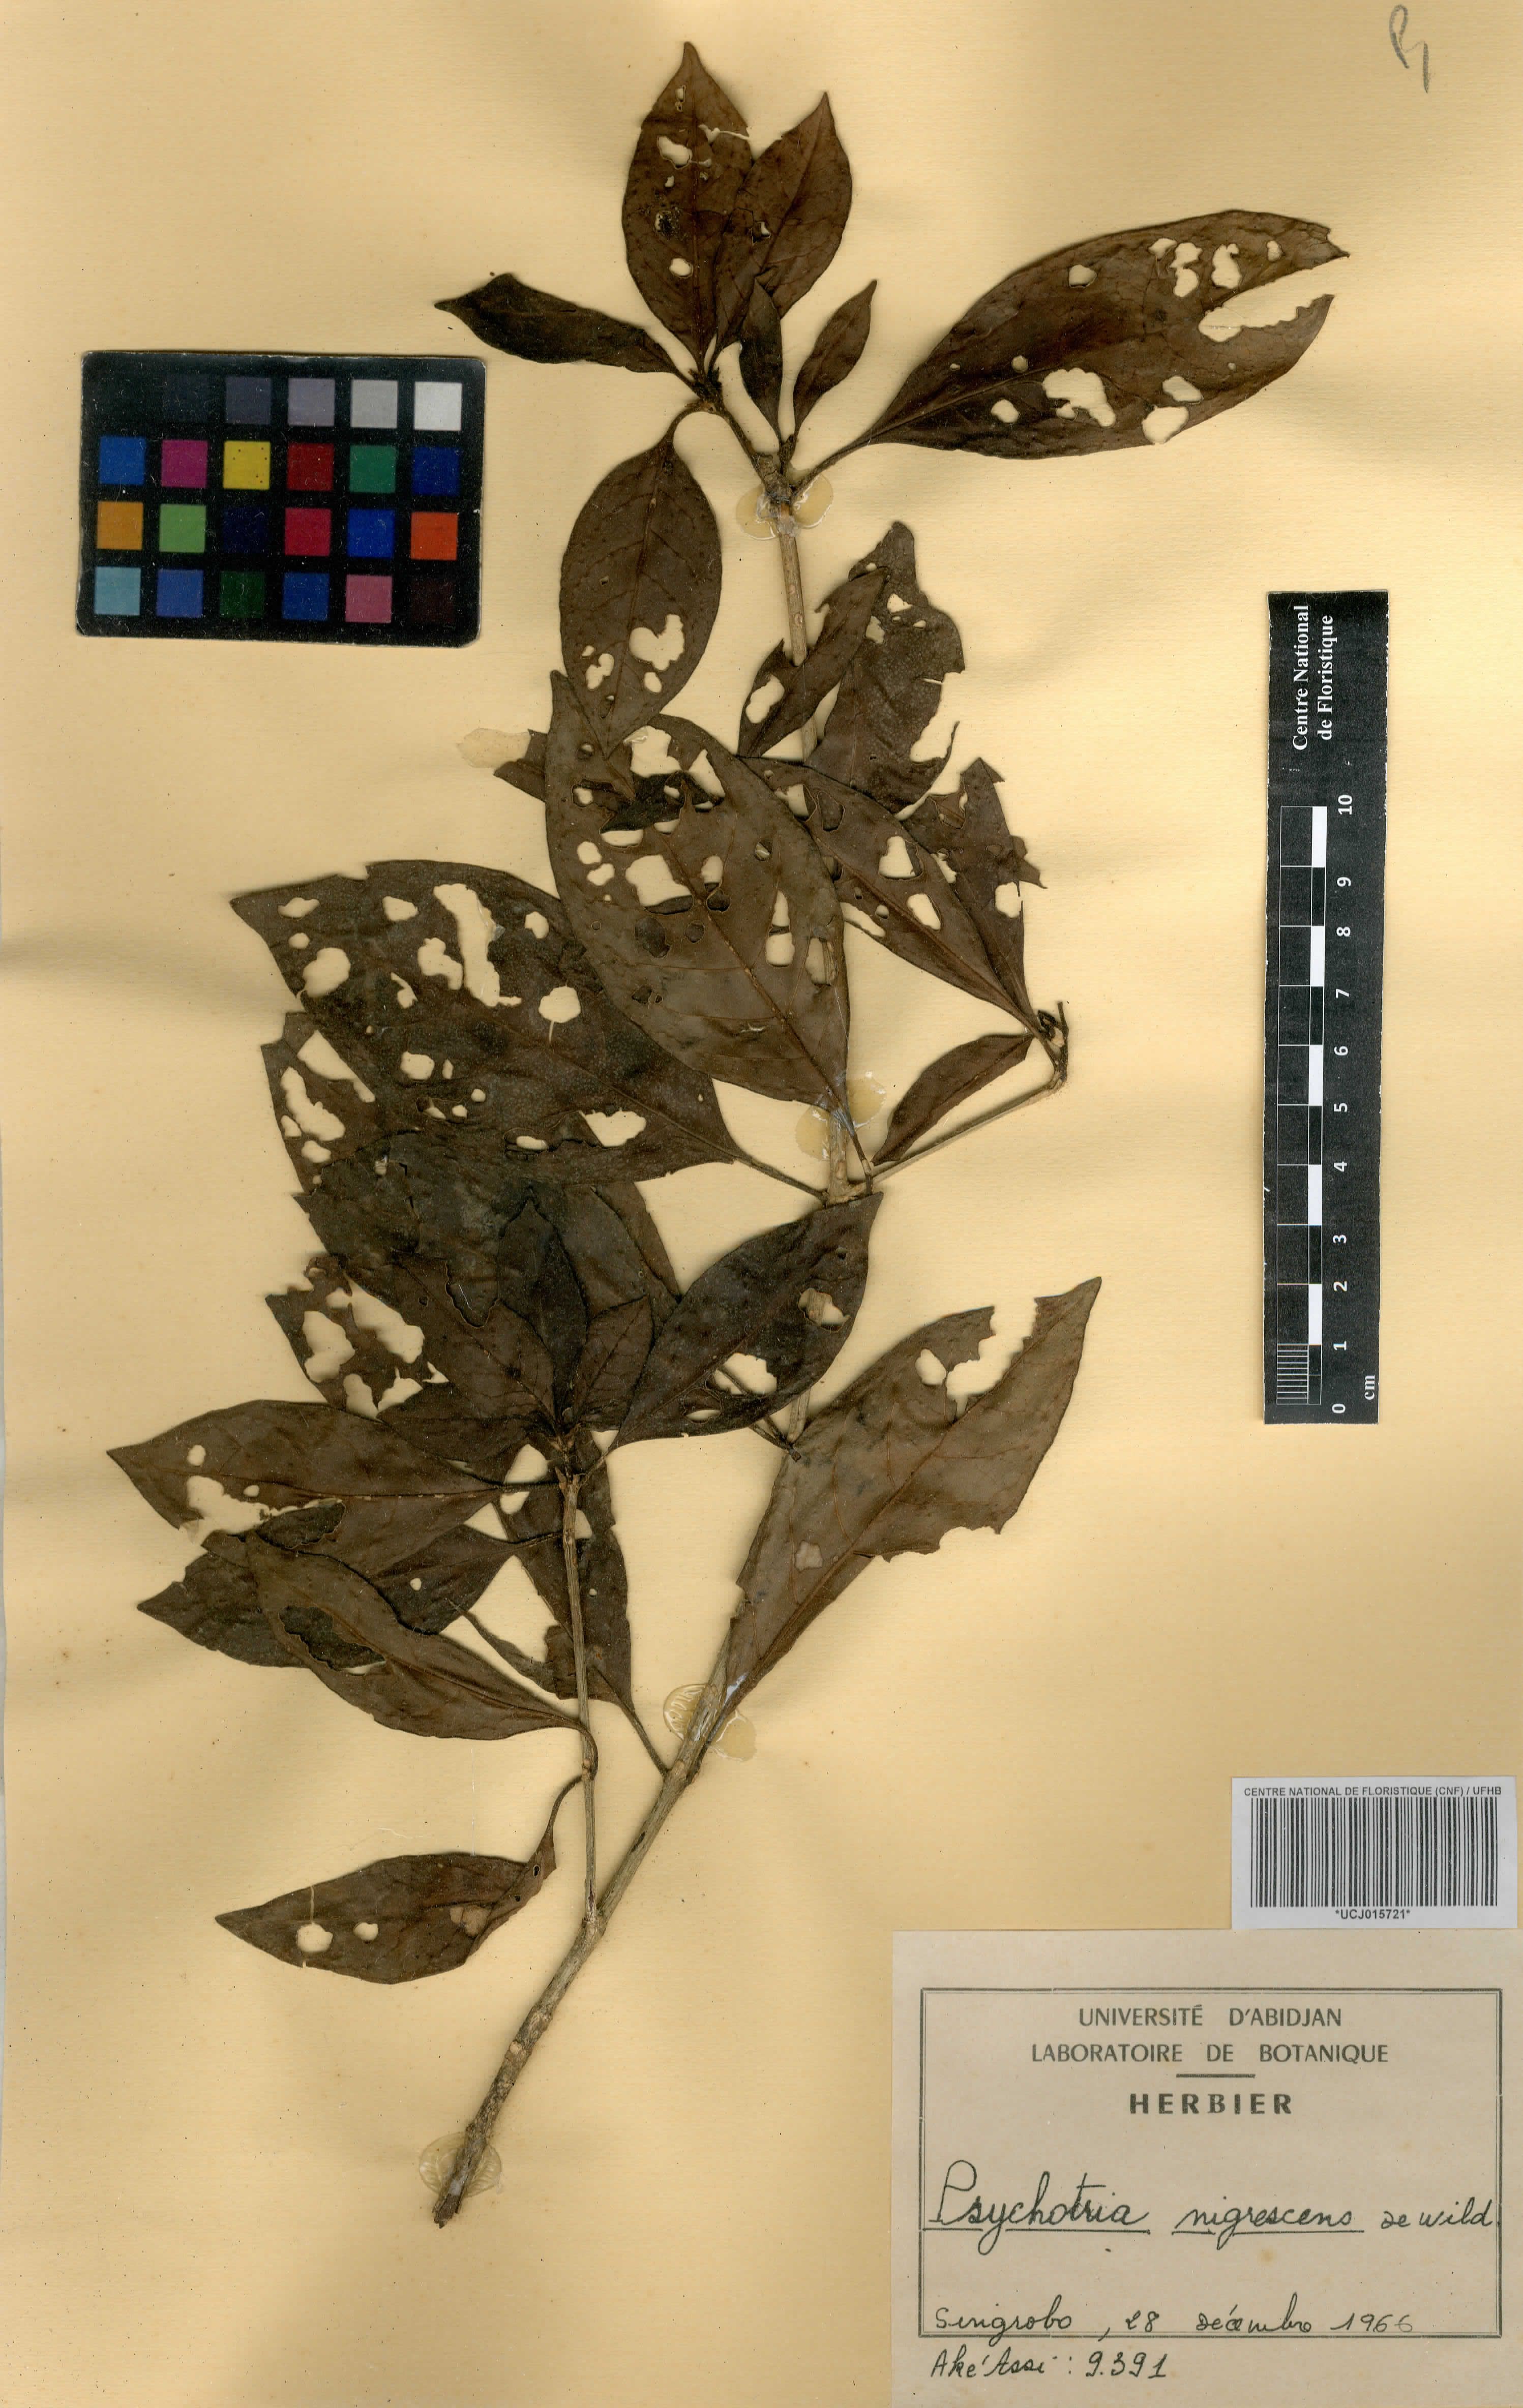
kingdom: Plantae
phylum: Tracheophyta
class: Magnoliopsida
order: Gentianales
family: Rubiaceae
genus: Psychotria
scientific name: Psychotria nigrescens
